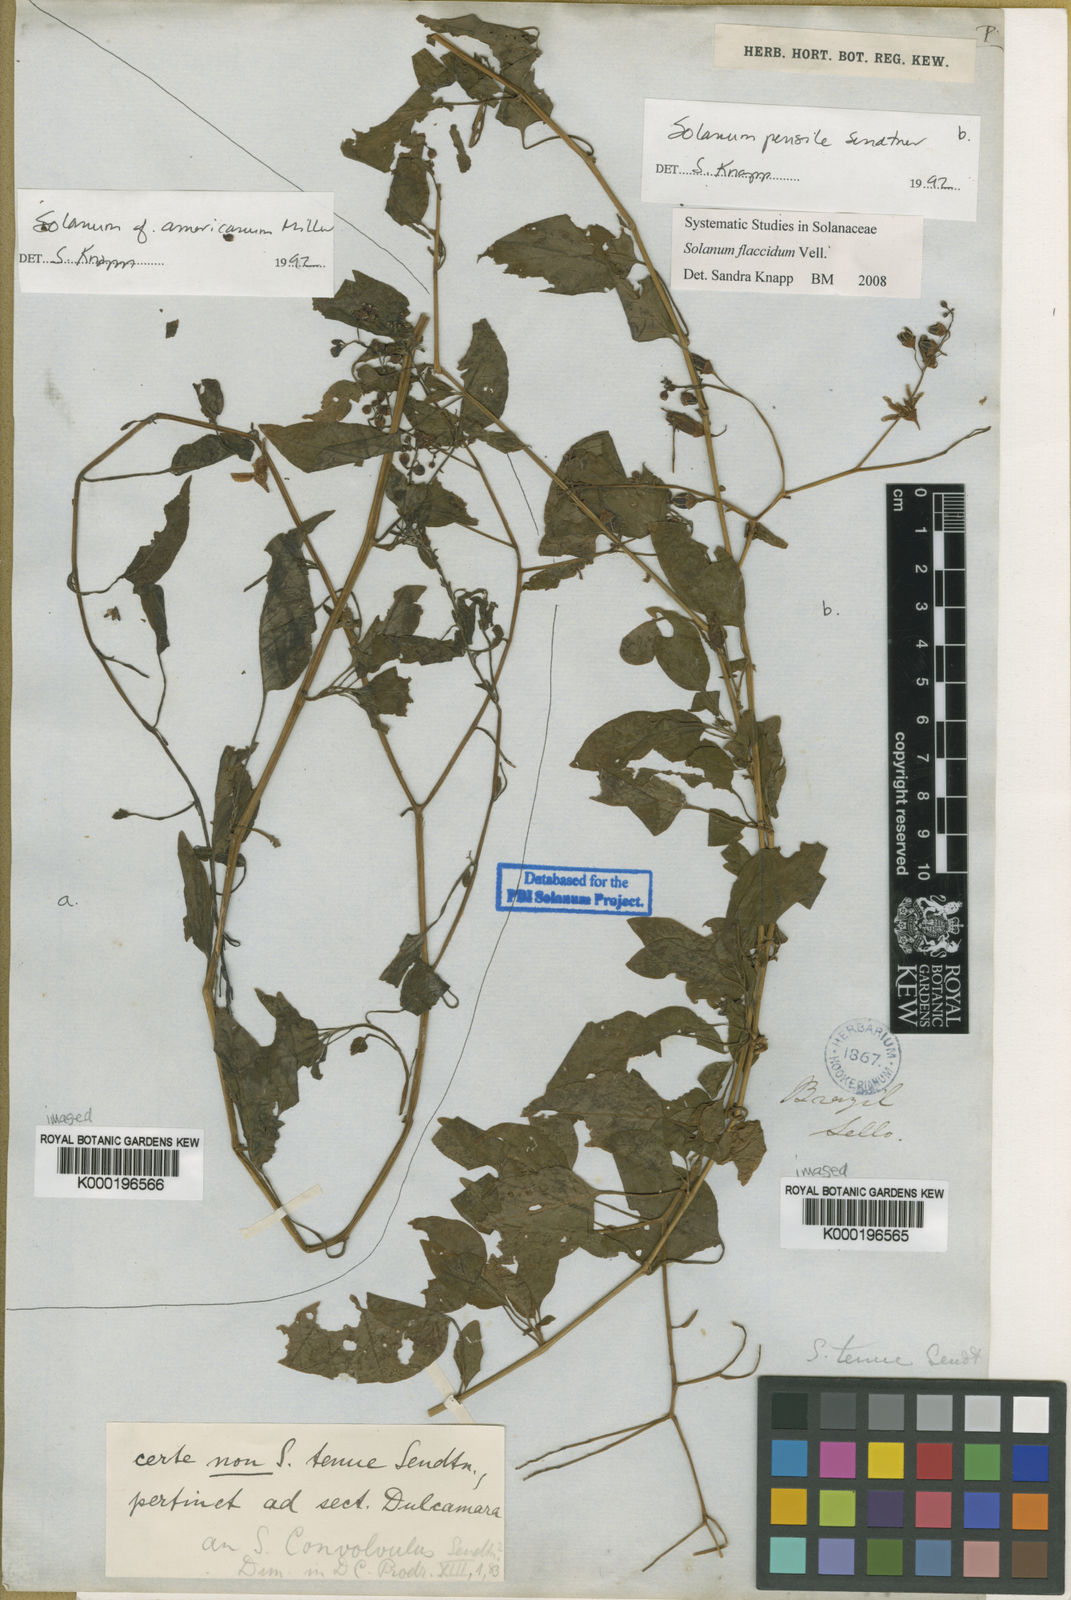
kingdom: Plantae
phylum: Tracheophyta
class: Magnoliopsida
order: Solanales
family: Solanaceae
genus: Solanum
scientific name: Solanum flaccidum
